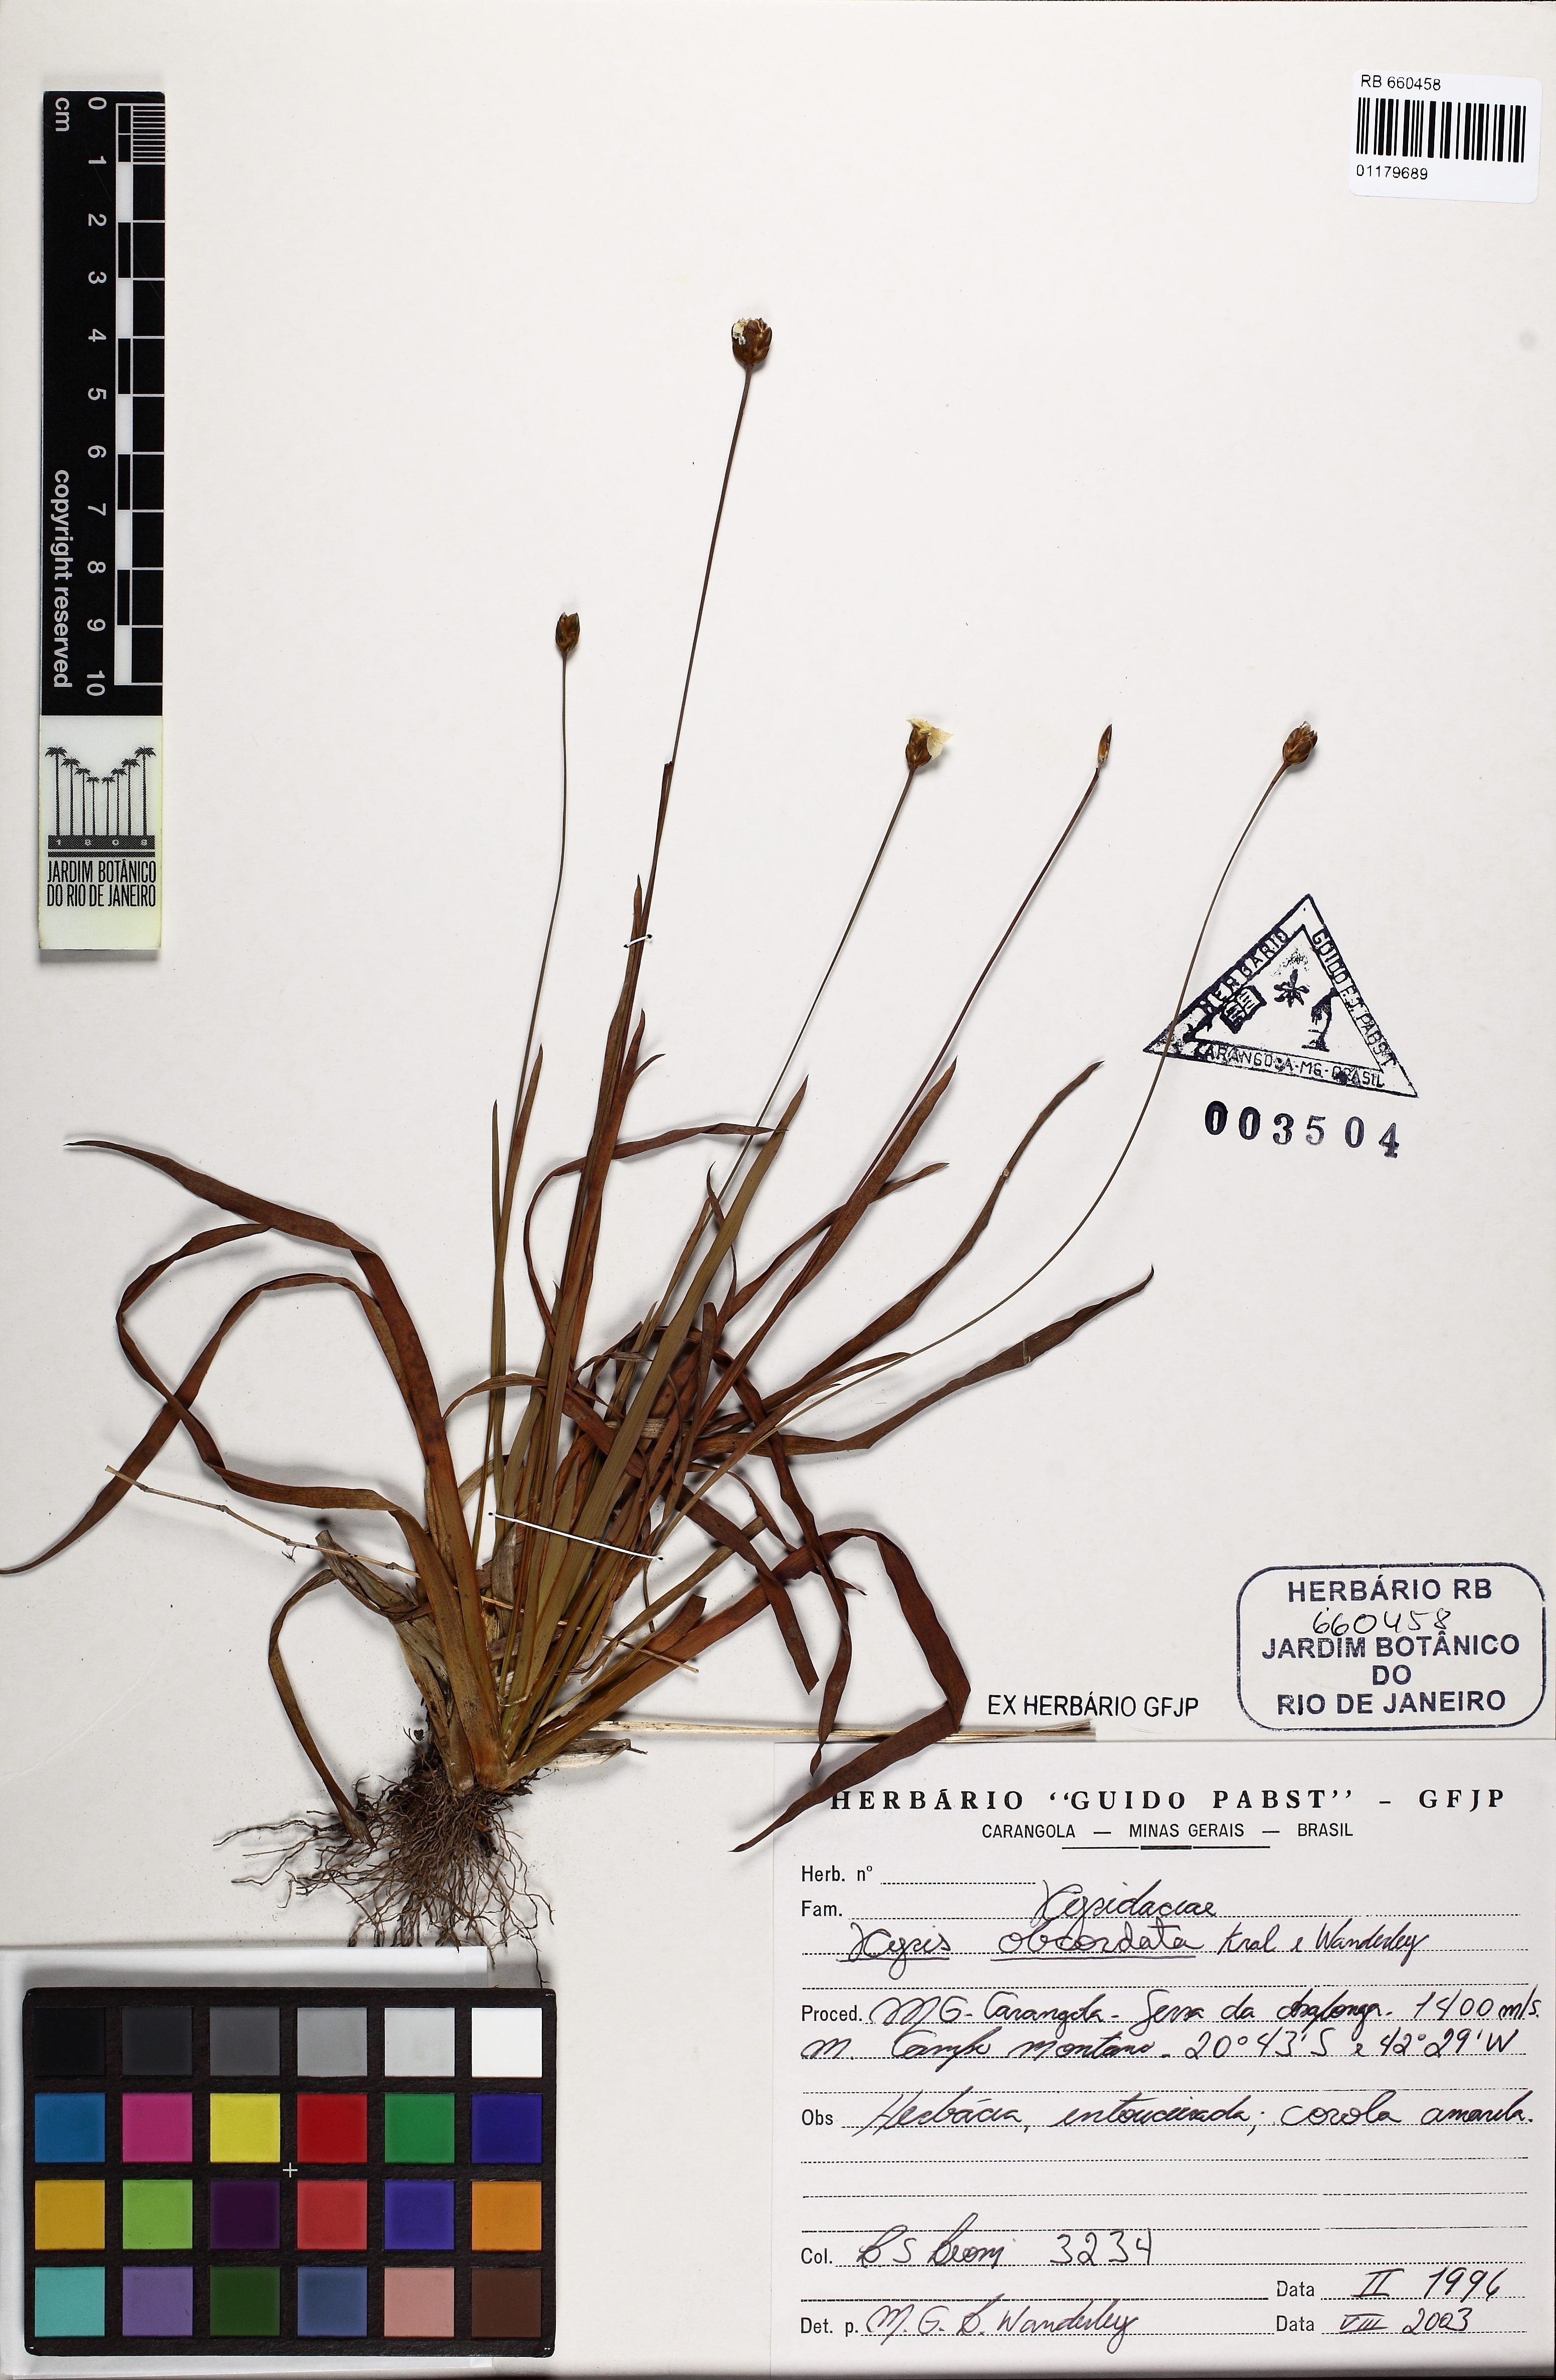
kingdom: Plantae
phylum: Tracheophyta
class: Liliopsida
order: Poales
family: Xyridaceae
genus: Xyris
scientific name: Xyris obcordata
